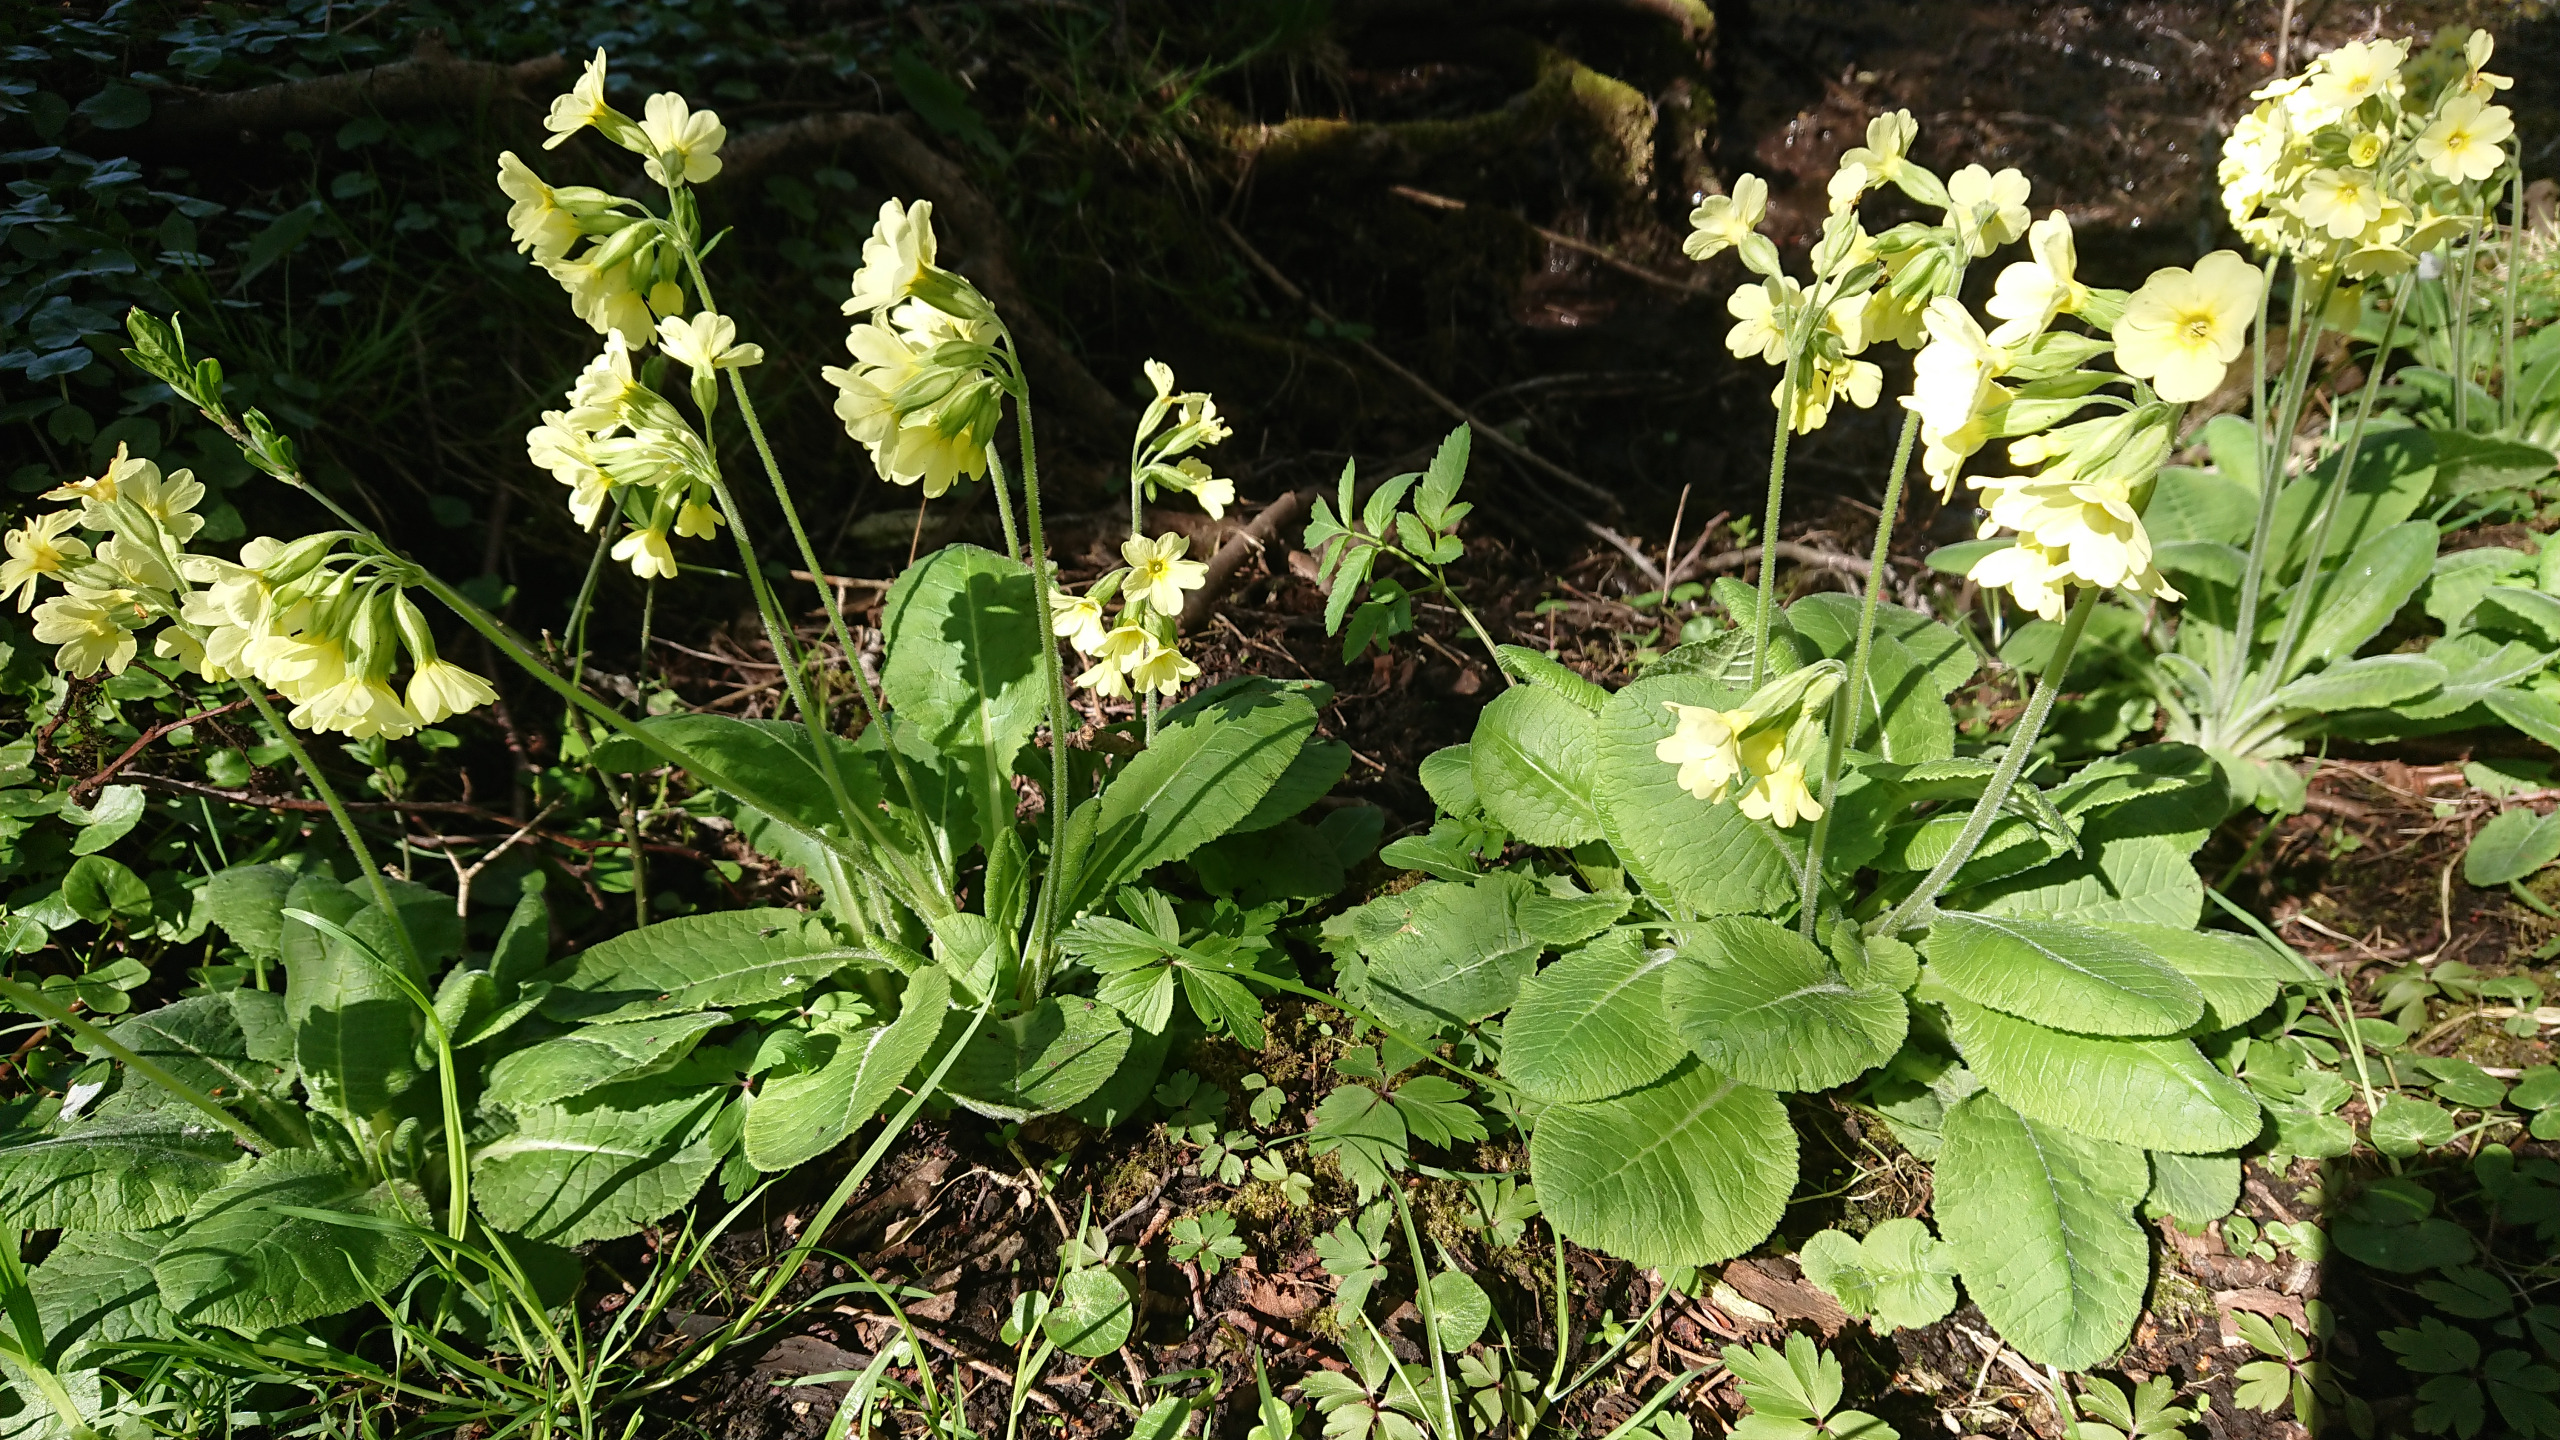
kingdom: Plantae
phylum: Tracheophyta
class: Magnoliopsida
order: Ericales
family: Primulaceae
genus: Primula
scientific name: Primula elatior
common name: Fladkravet kodriver
